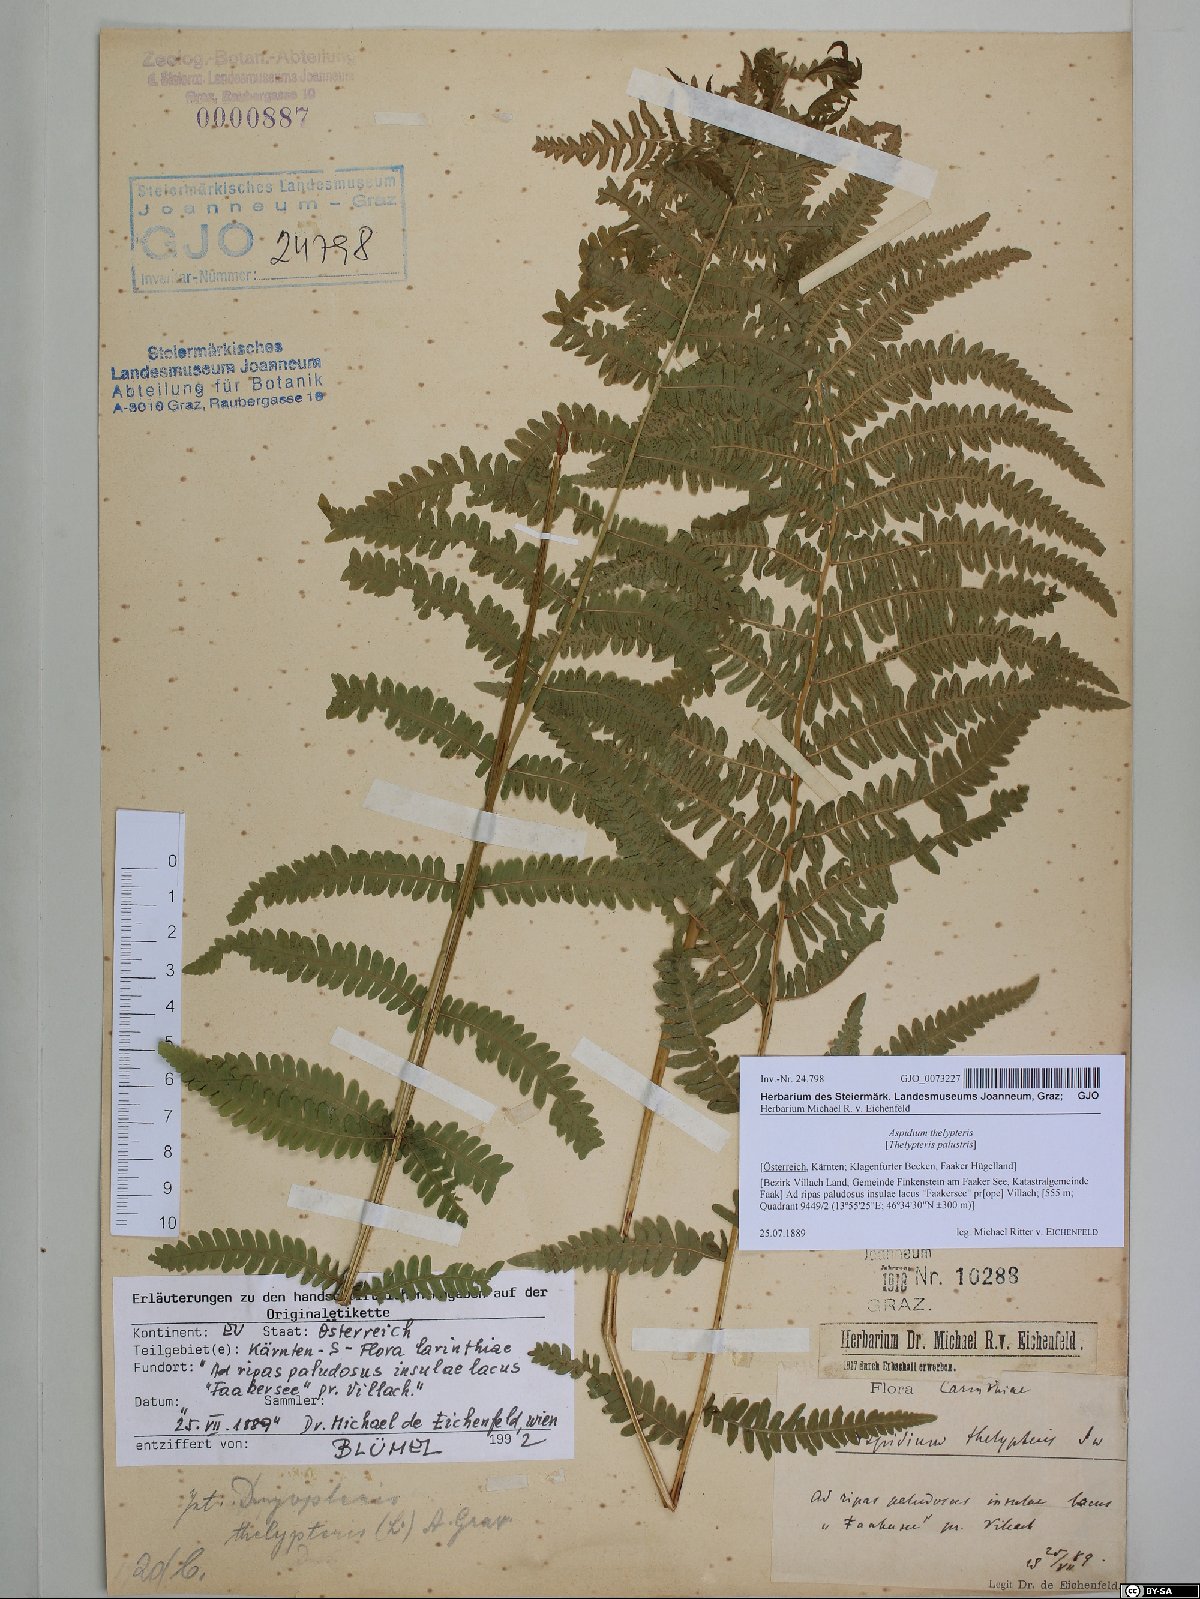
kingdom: Plantae
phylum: Tracheophyta
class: Polypodiopsida
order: Polypodiales
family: Thelypteridaceae
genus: Thelypteris
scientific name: Thelypteris palustris
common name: Marsh fern
